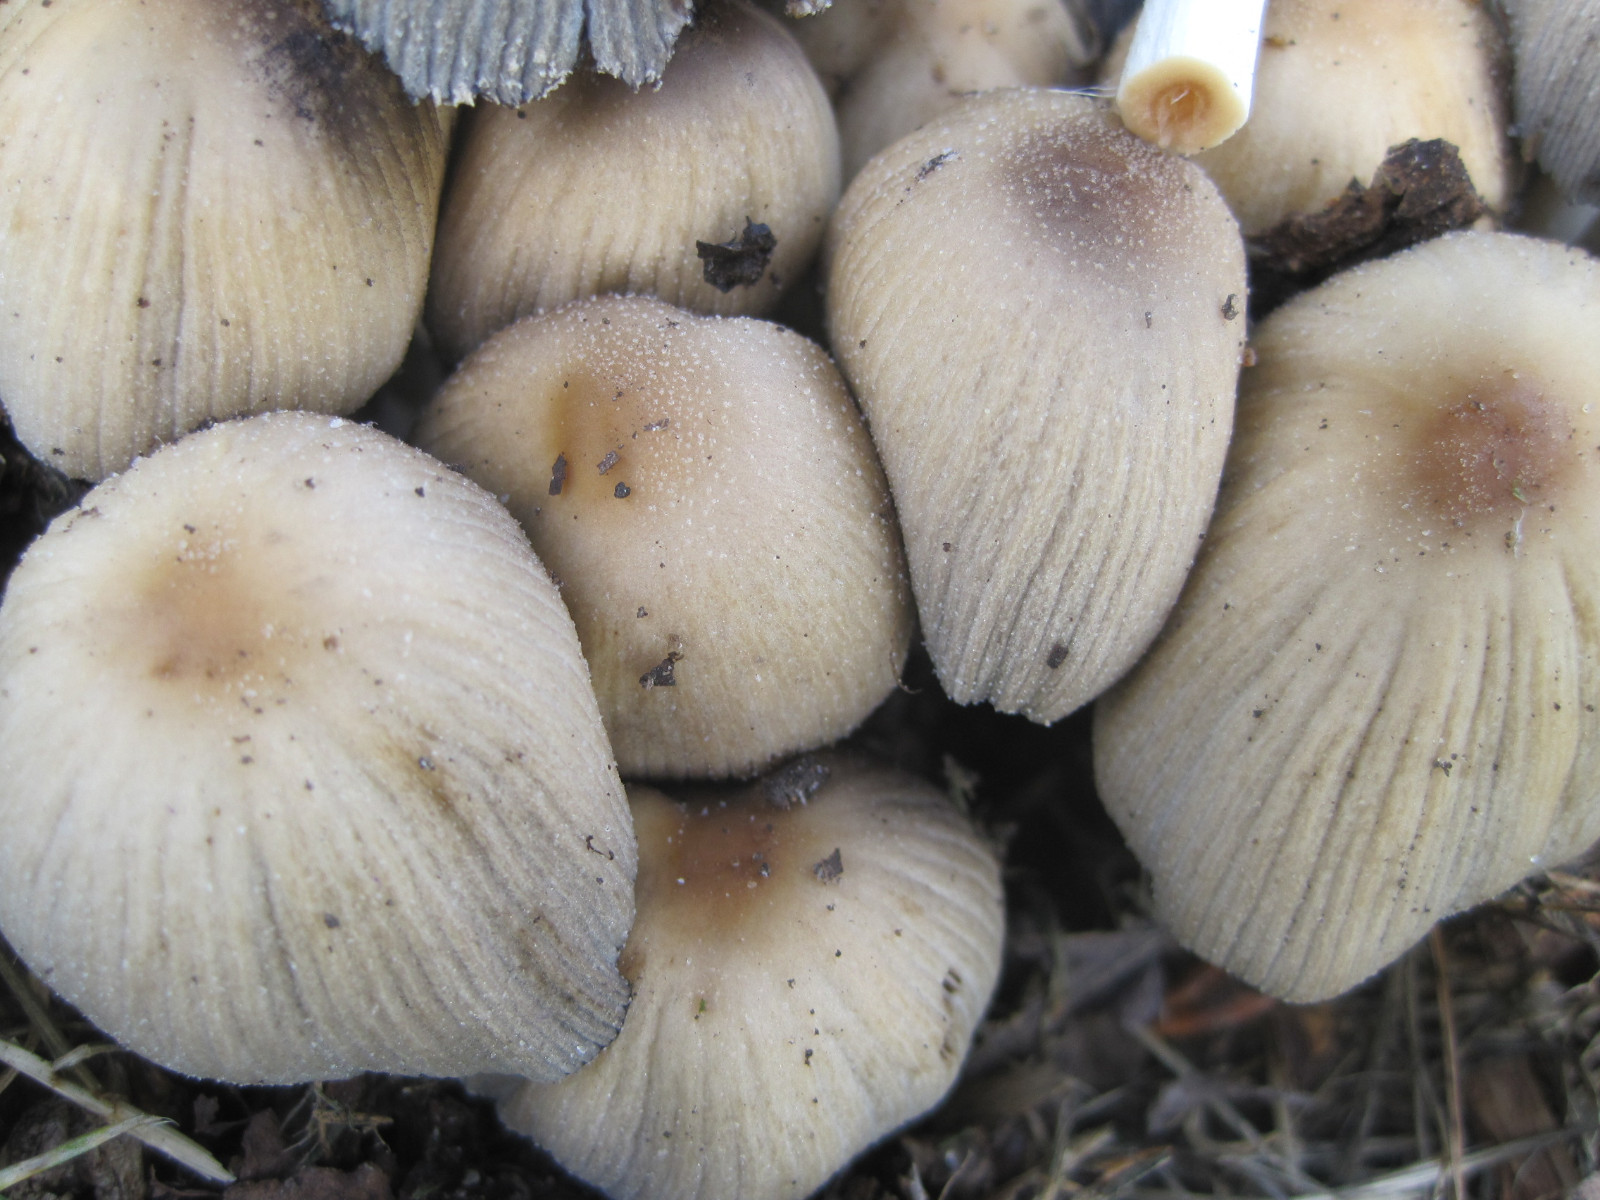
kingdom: Fungi
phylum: Basidiomycota
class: Agaricomycetes
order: Agaricales
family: Psathyrellaceae
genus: Coprinellus
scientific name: Coprinellus micaceus
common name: glimmer-blækhat
